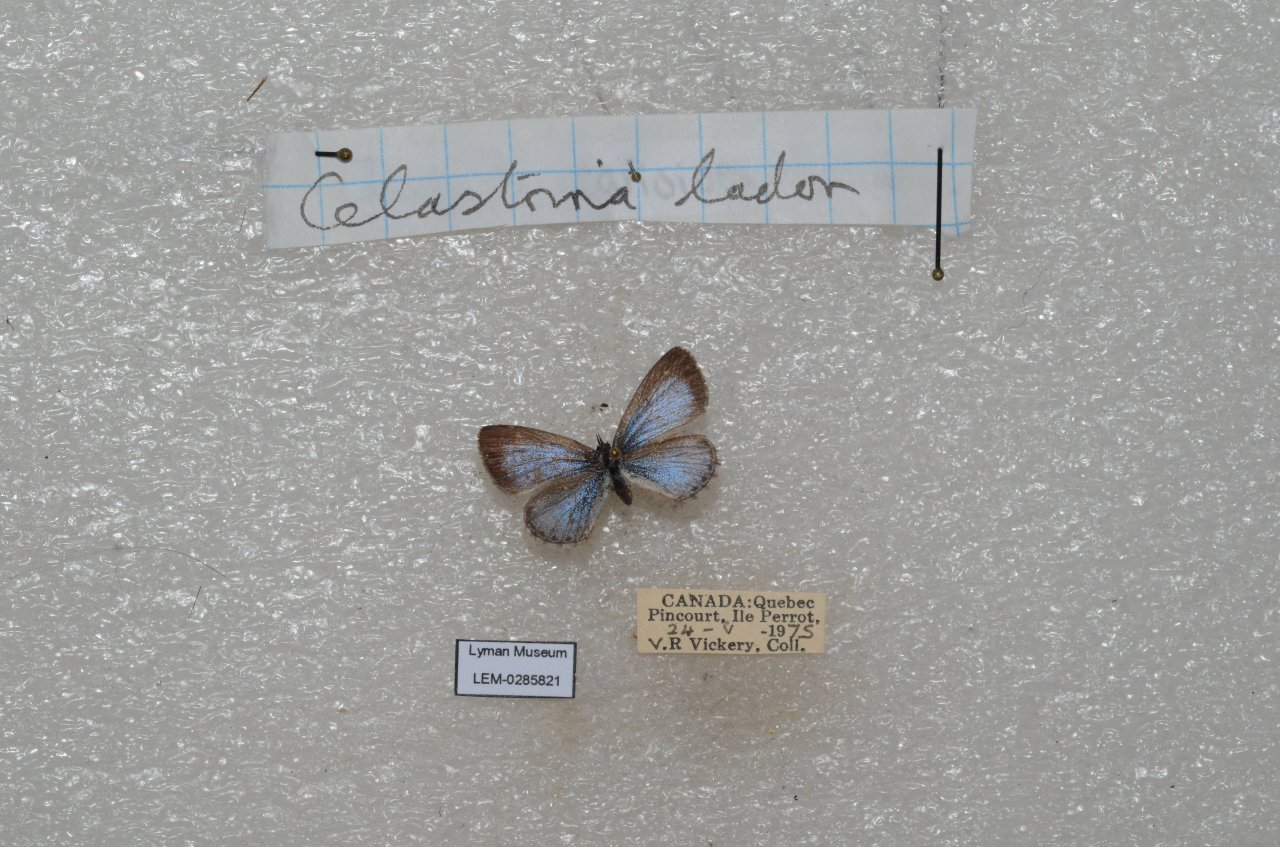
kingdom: Animalia
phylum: Arthropoda
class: Insecta
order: Lepidoptera
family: Lycaenidae
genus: Celastrina
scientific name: Celastrina lucia
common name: Northern Spring Azure
